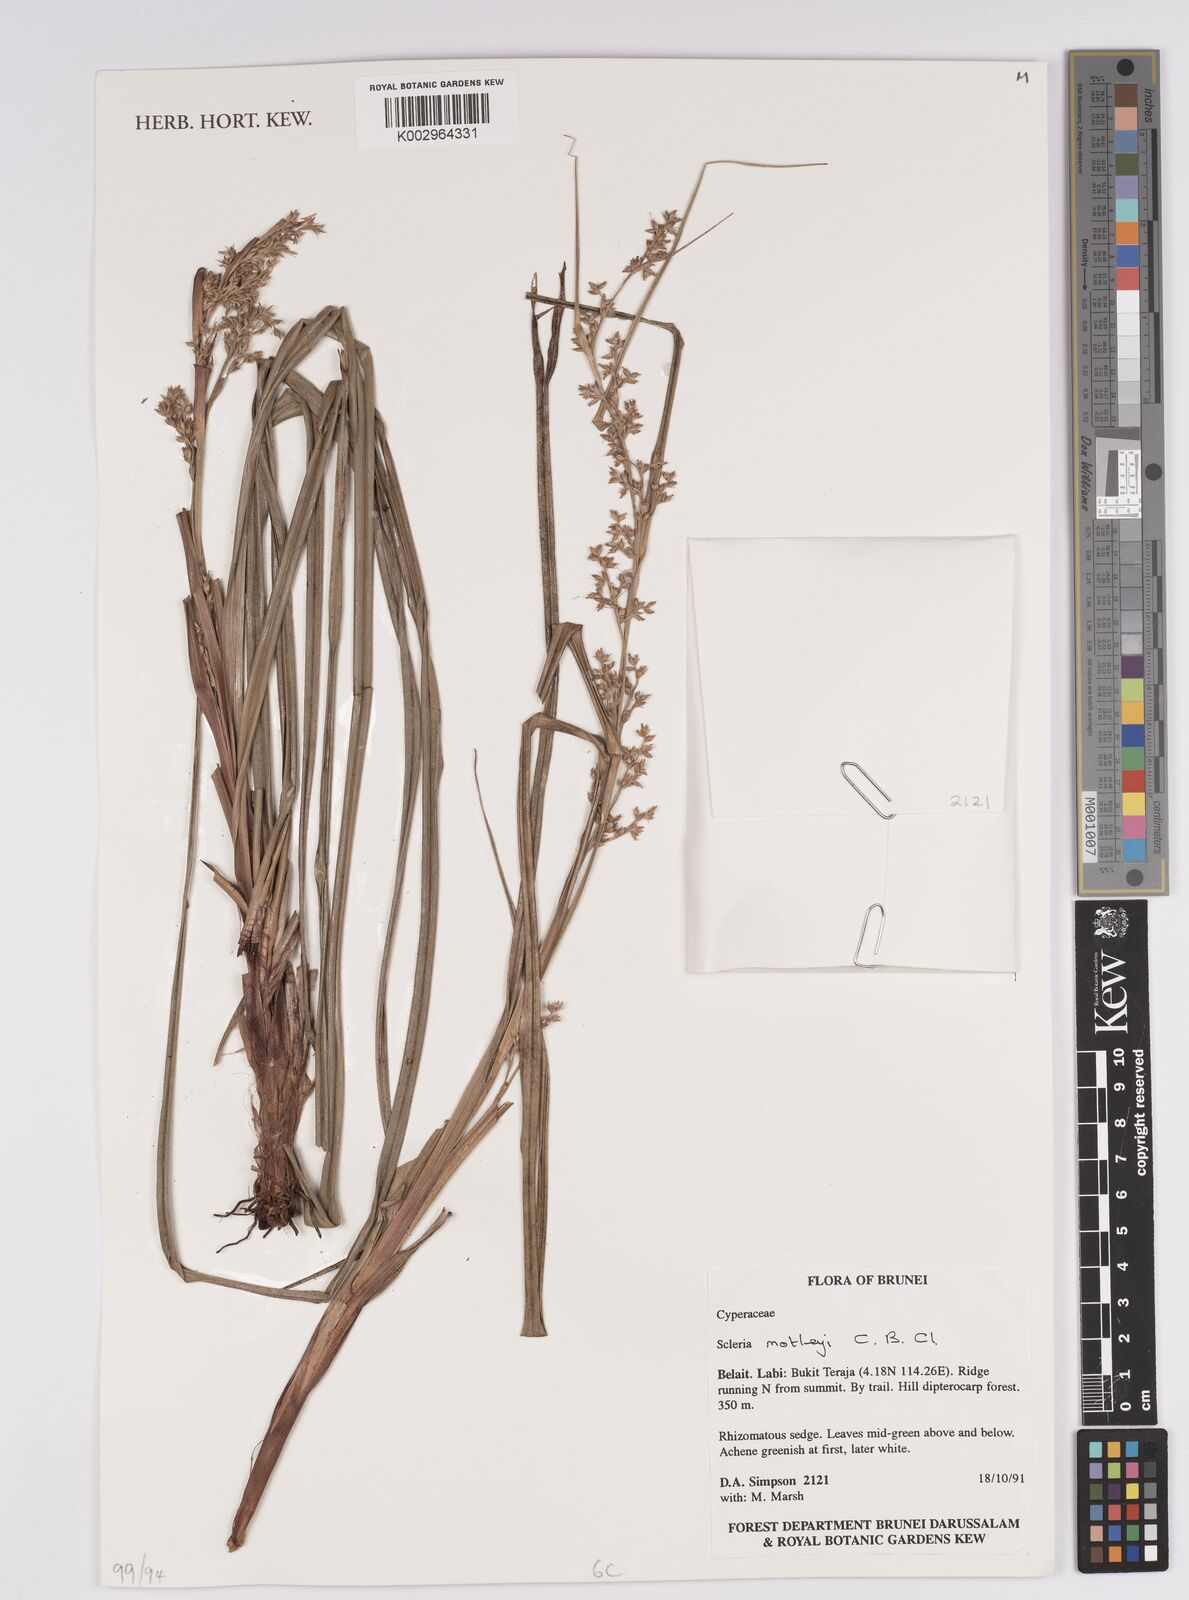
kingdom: Plantae
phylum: Tracheophyta
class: Liliopsida
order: Poales
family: Cyperaceae
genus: Scleria
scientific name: Scleria motleyi
